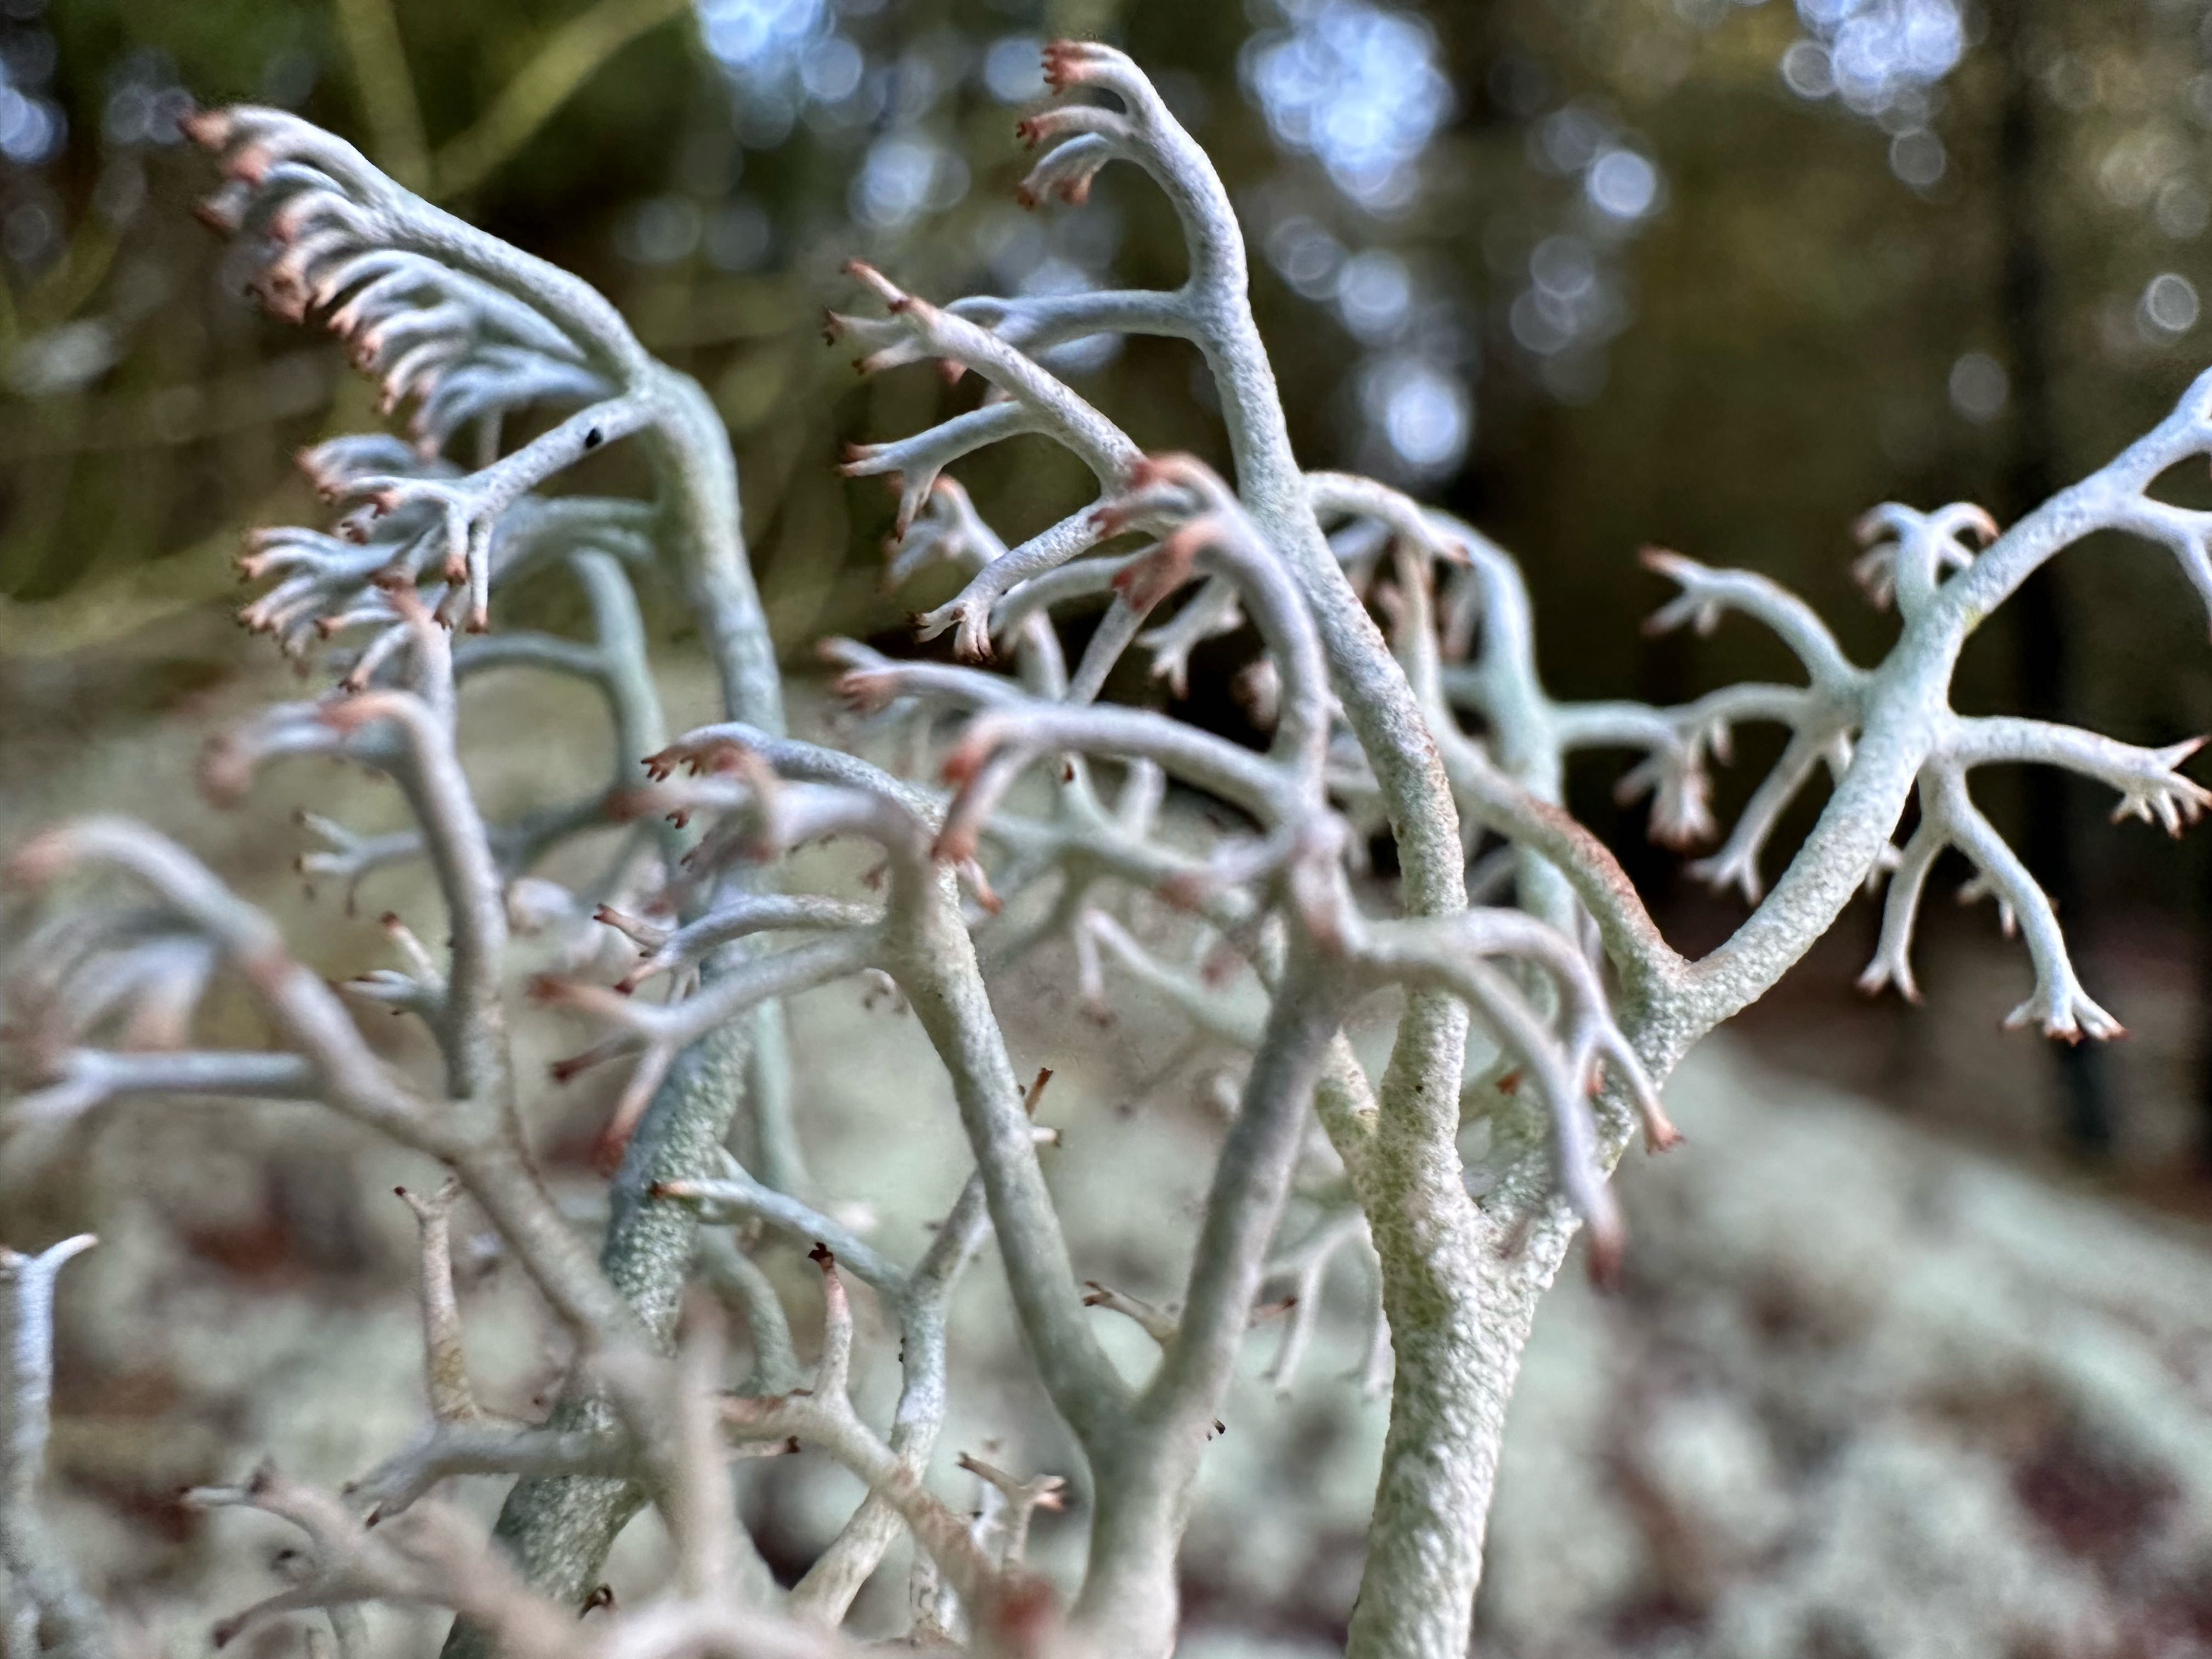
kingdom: Fungi
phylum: Ascomycota
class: Lecanoromycetes
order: Lecanorales
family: Cladoniaceae
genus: Cladonia
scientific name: Cladonia rangiferina
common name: askegrå rensdyrlav
